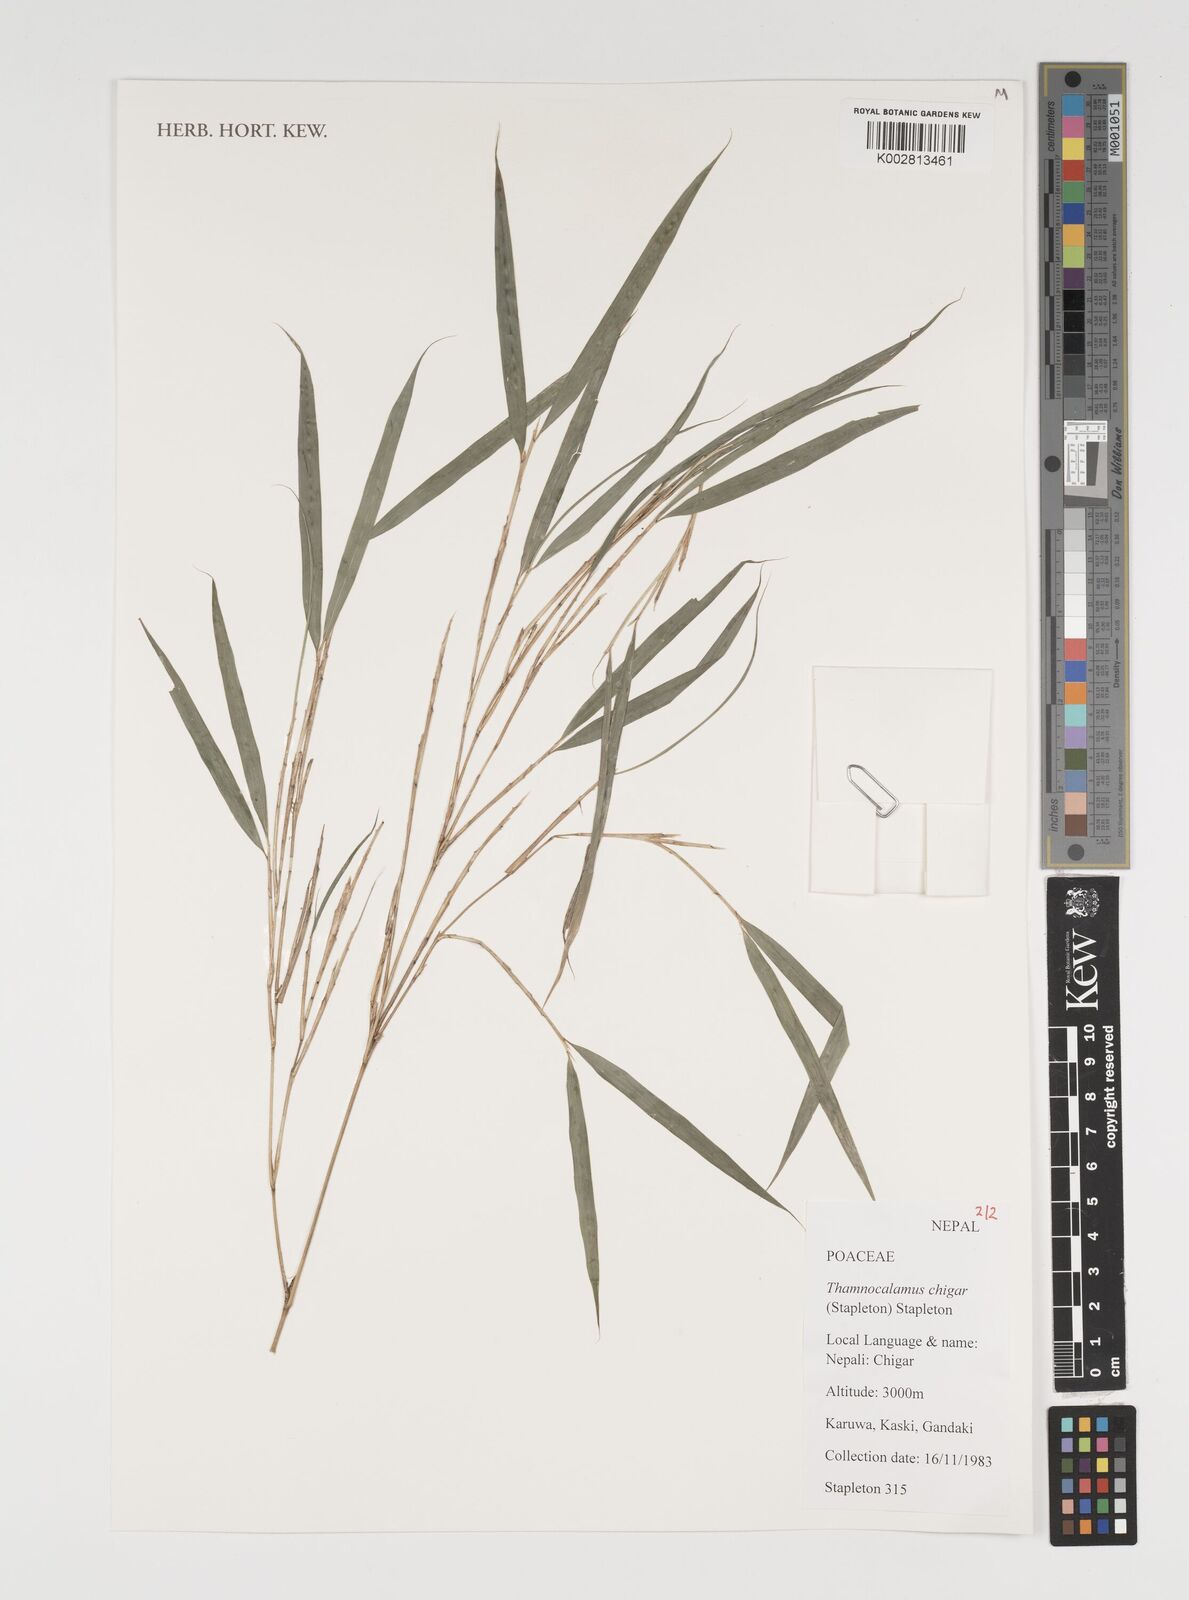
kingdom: Plantae
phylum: Tracheophyta
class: Liliopsida
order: Poales
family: Poaceae
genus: Thamnocalamus
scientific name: Thamnocalamus chigar
